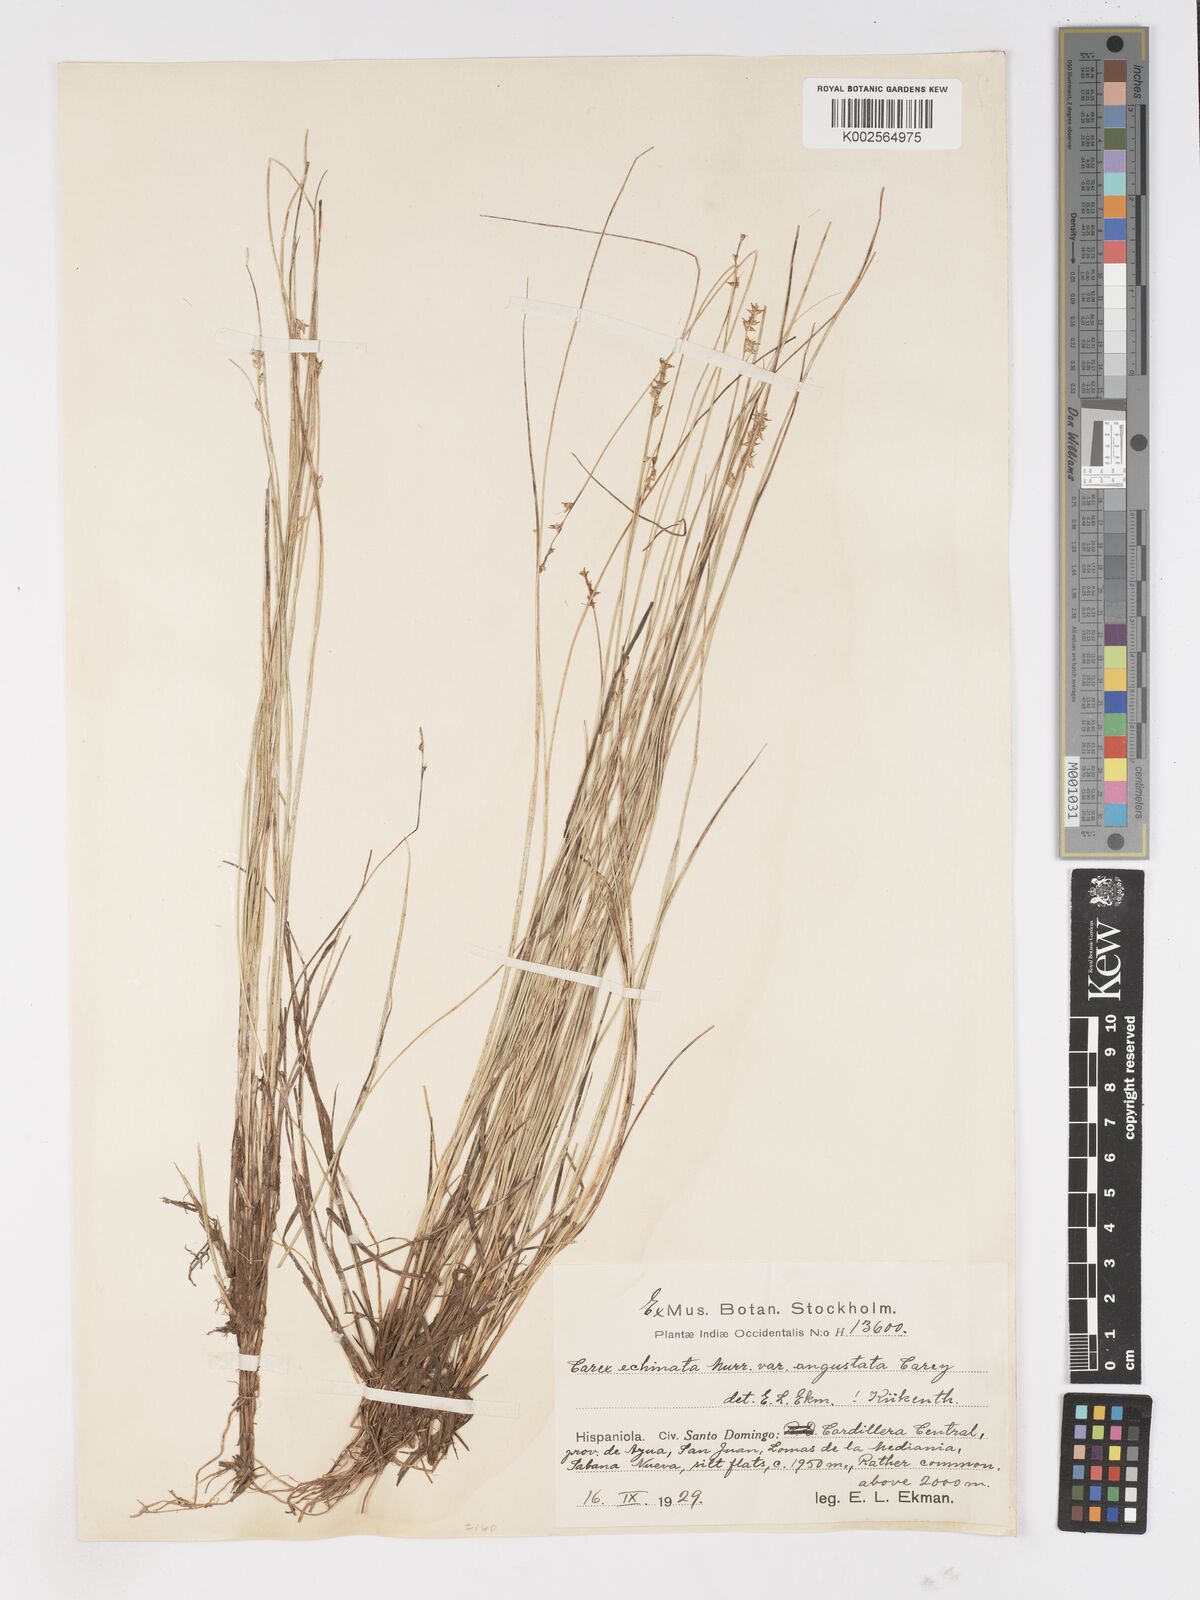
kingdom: Plantae
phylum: Tracheophyta
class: Liliopsida
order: Poales
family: Cyperaceae
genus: Carex
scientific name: Carex echinata
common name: Star sedge
